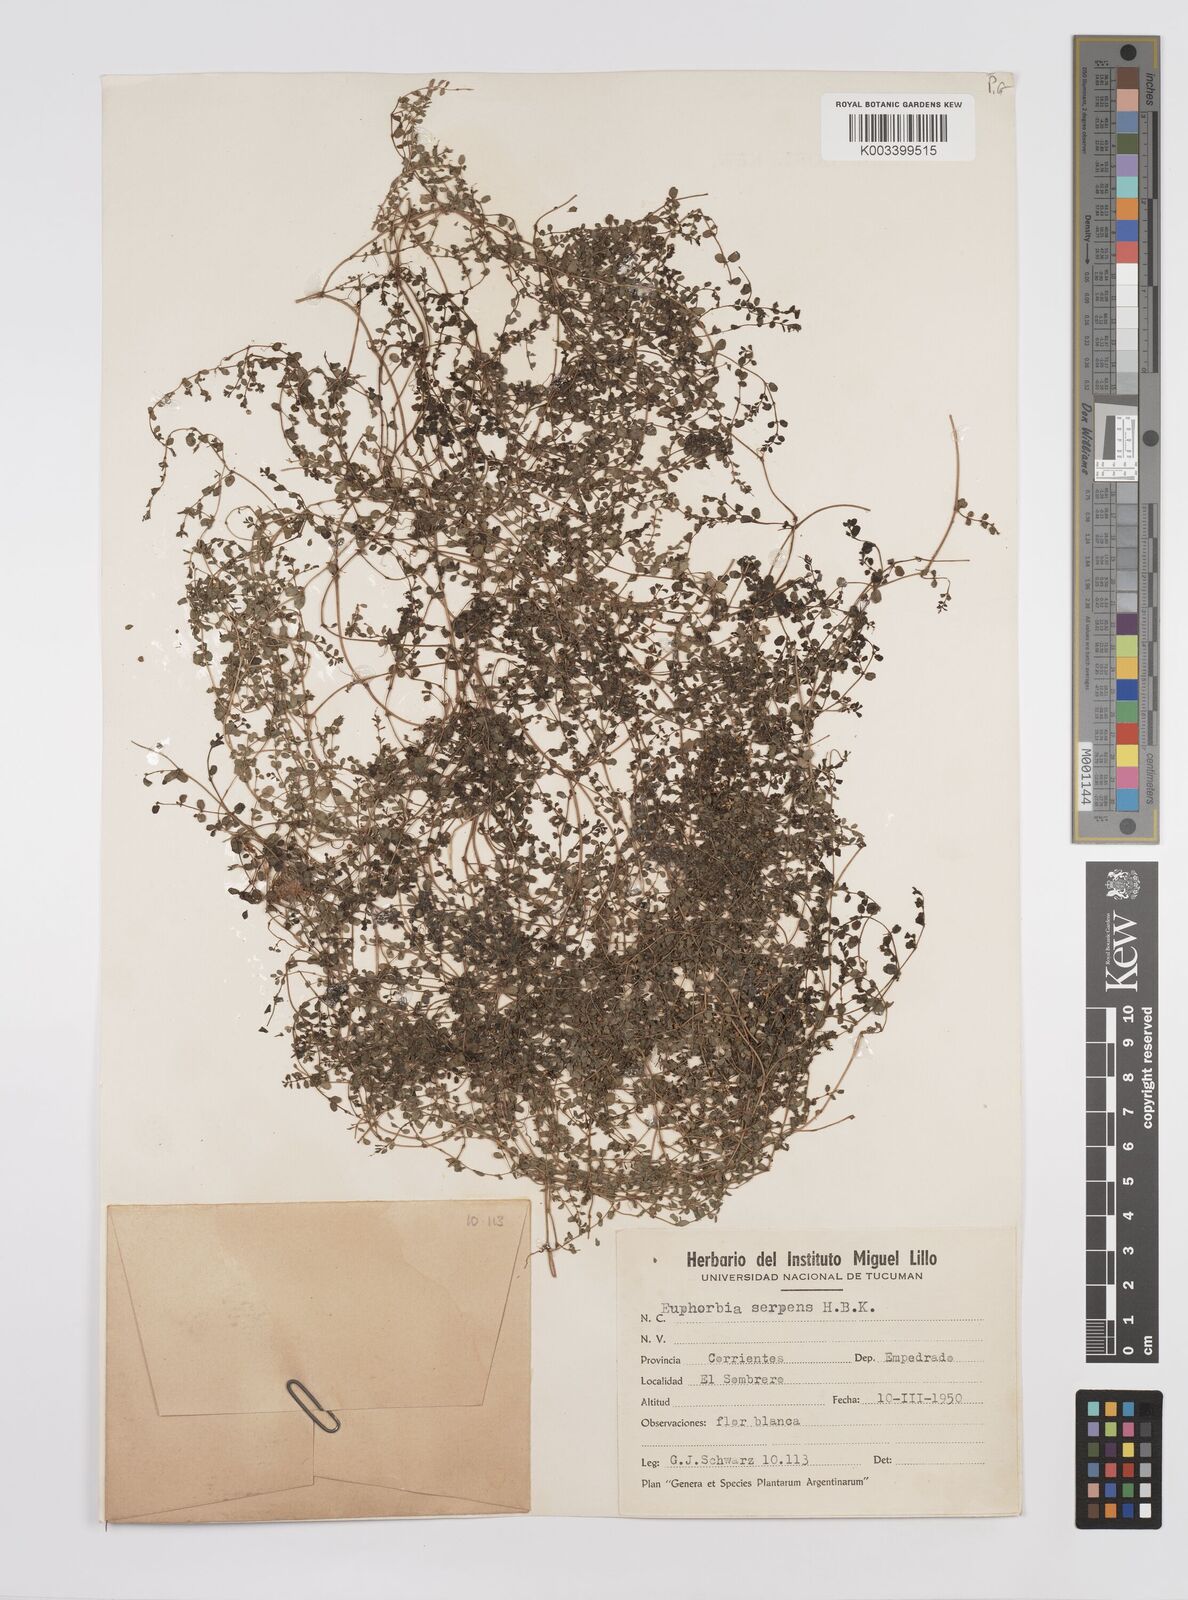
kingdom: Plantae
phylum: Tracheophyta
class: Magnoliopsida
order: Malpighiales
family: Euphorbiaceae
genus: Euphorbia
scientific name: Euphorbia
